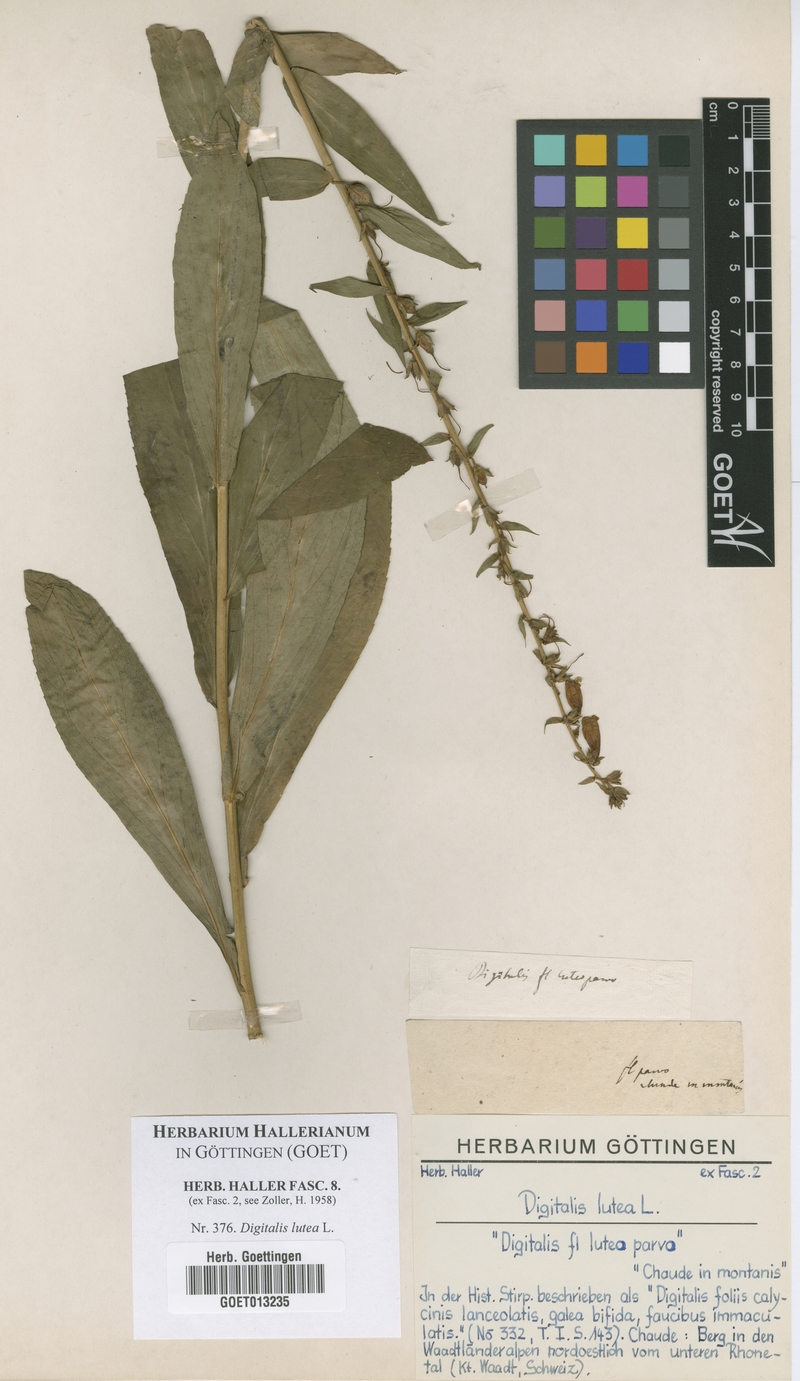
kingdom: Plantae
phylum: Tracheophyta
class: Magnoliopsida
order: Lamiales
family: Plantaginaceae
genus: Digitalis
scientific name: Digitalis lutea
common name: Straw foxglove
